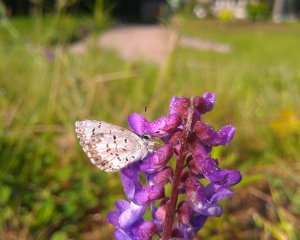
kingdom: Animalia
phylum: Arthropoda
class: Insecta
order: Lepidoptera
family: Lycaenidae
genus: Celastrina
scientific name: Celastrina lucia
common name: Northern Spring Azure
